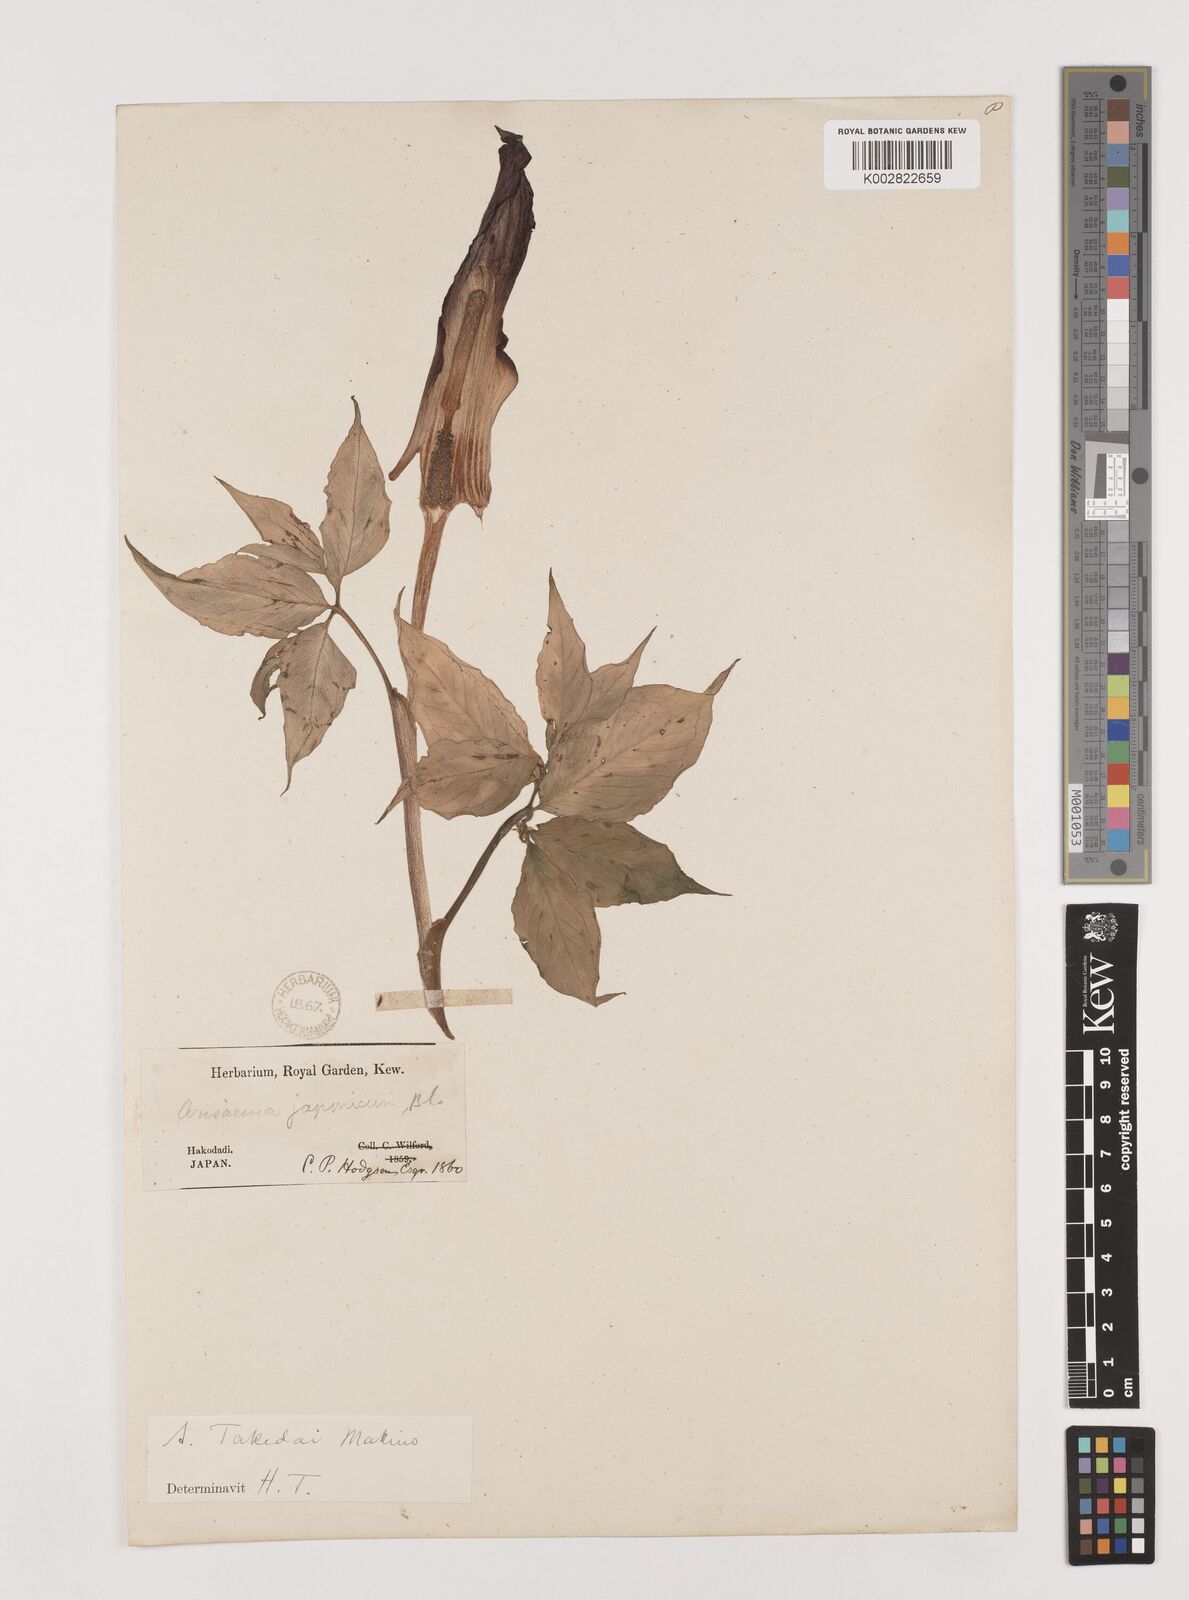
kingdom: Plantae
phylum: Tracheophyta
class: Liliopsida
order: Alismatales
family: Araceae
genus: Arisaema
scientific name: Arisaema serratum
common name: Japanese arisaema
